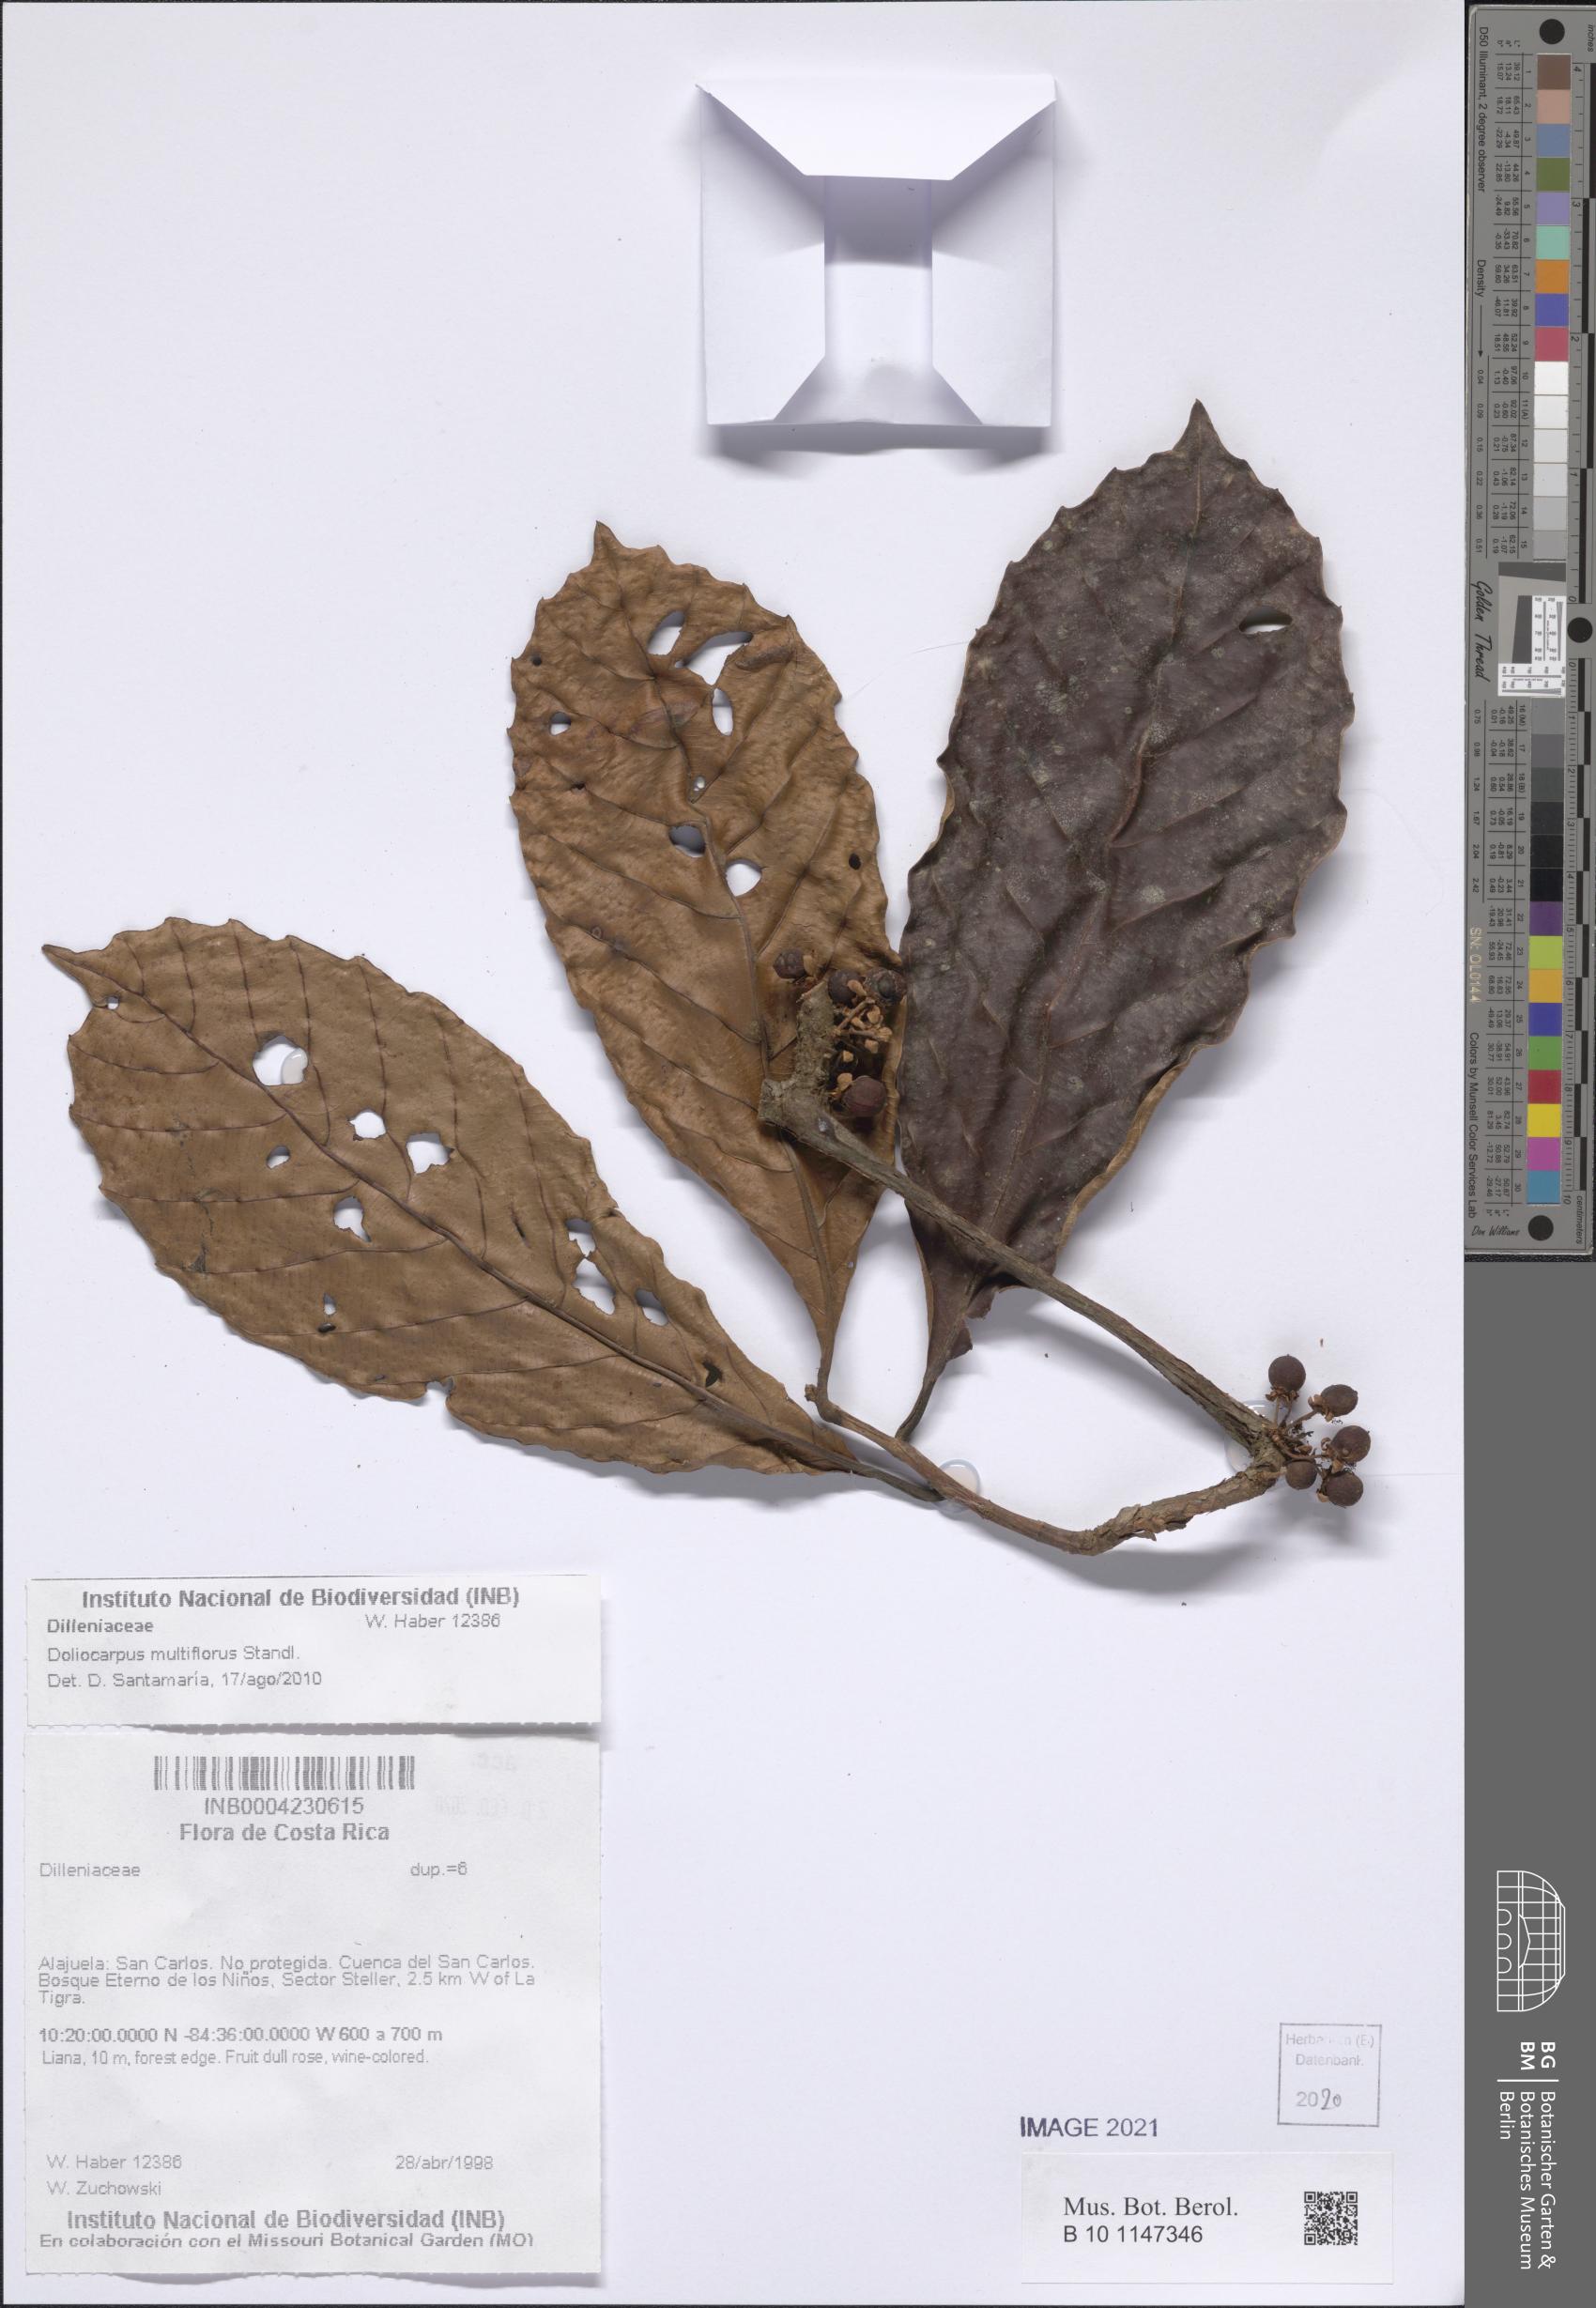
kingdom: Plantae
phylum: Tracheophyta
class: Magnoliopsida
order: Dilleniales
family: Dilleniaceae
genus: Doliocarpus
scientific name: Doliocarpus multiflorus
